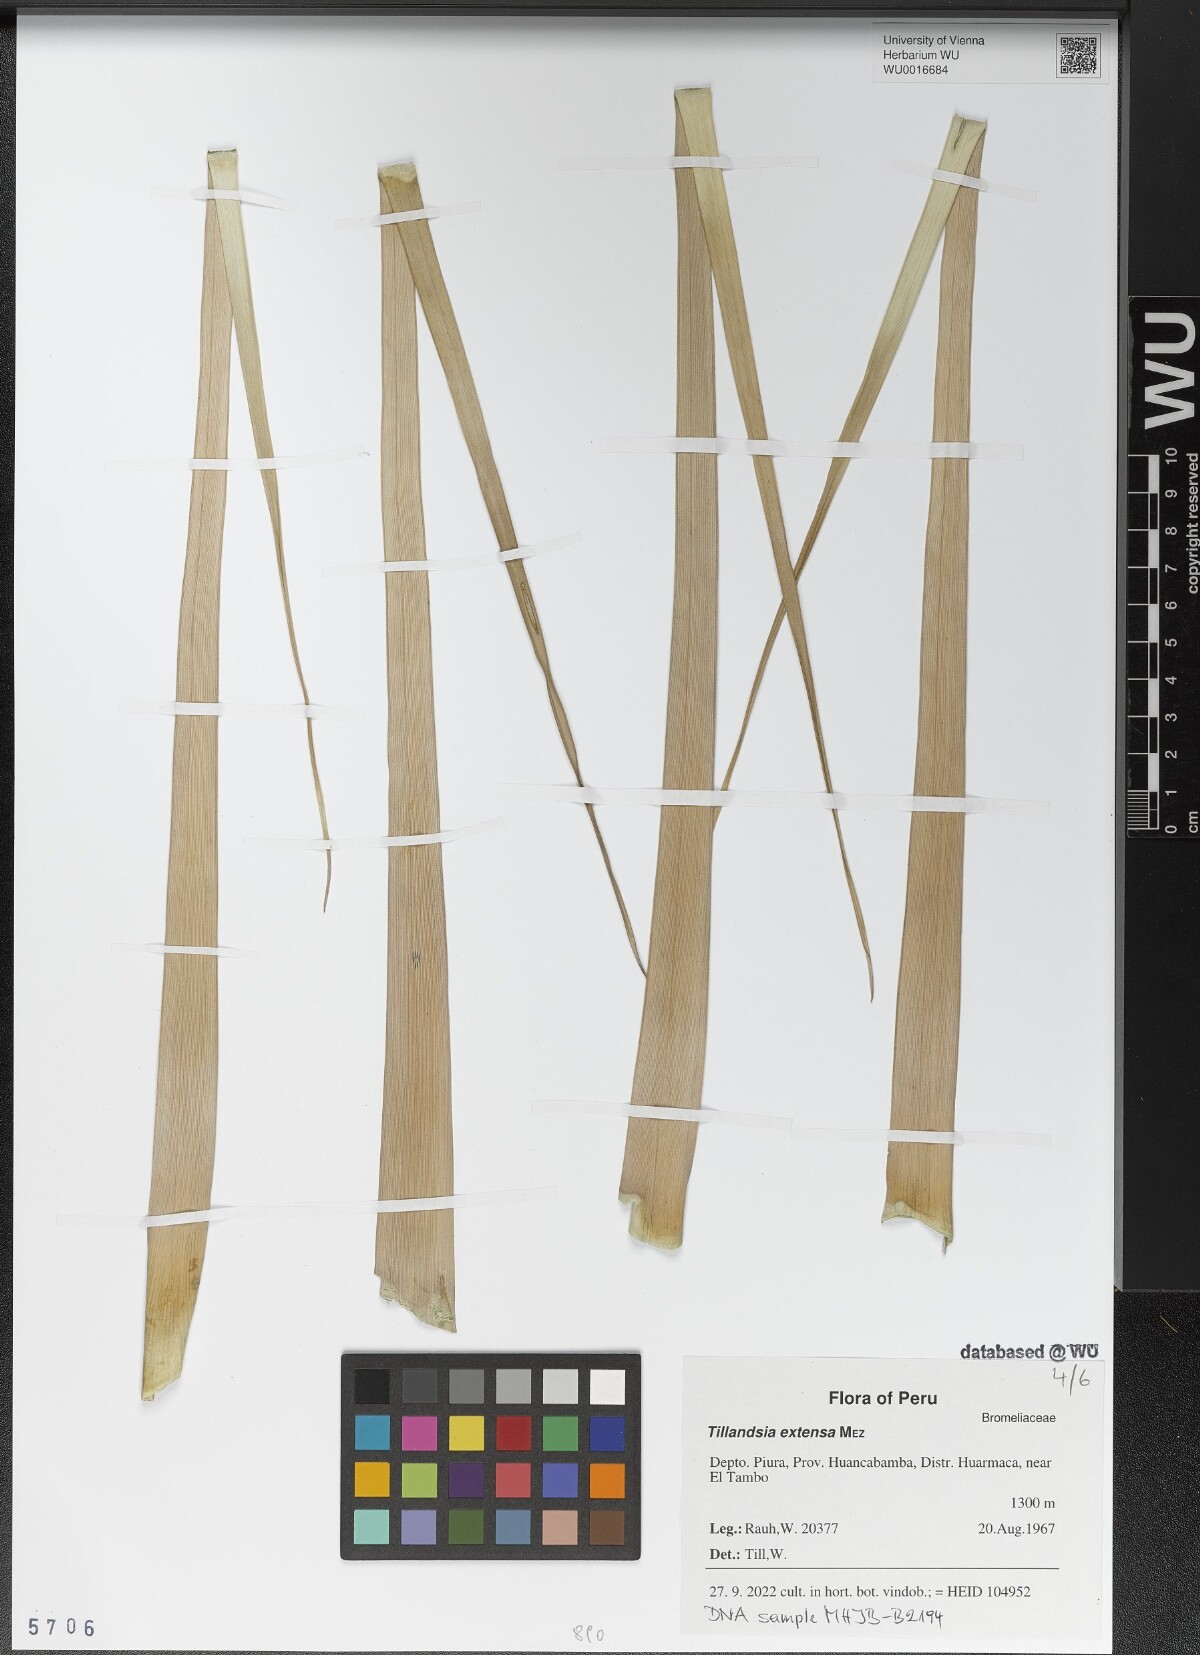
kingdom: Plantae
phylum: Tracheophyta
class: Liliopsida
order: Poales
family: Bromeliaceae
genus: Tillandsia
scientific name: Tillandsia extensa
